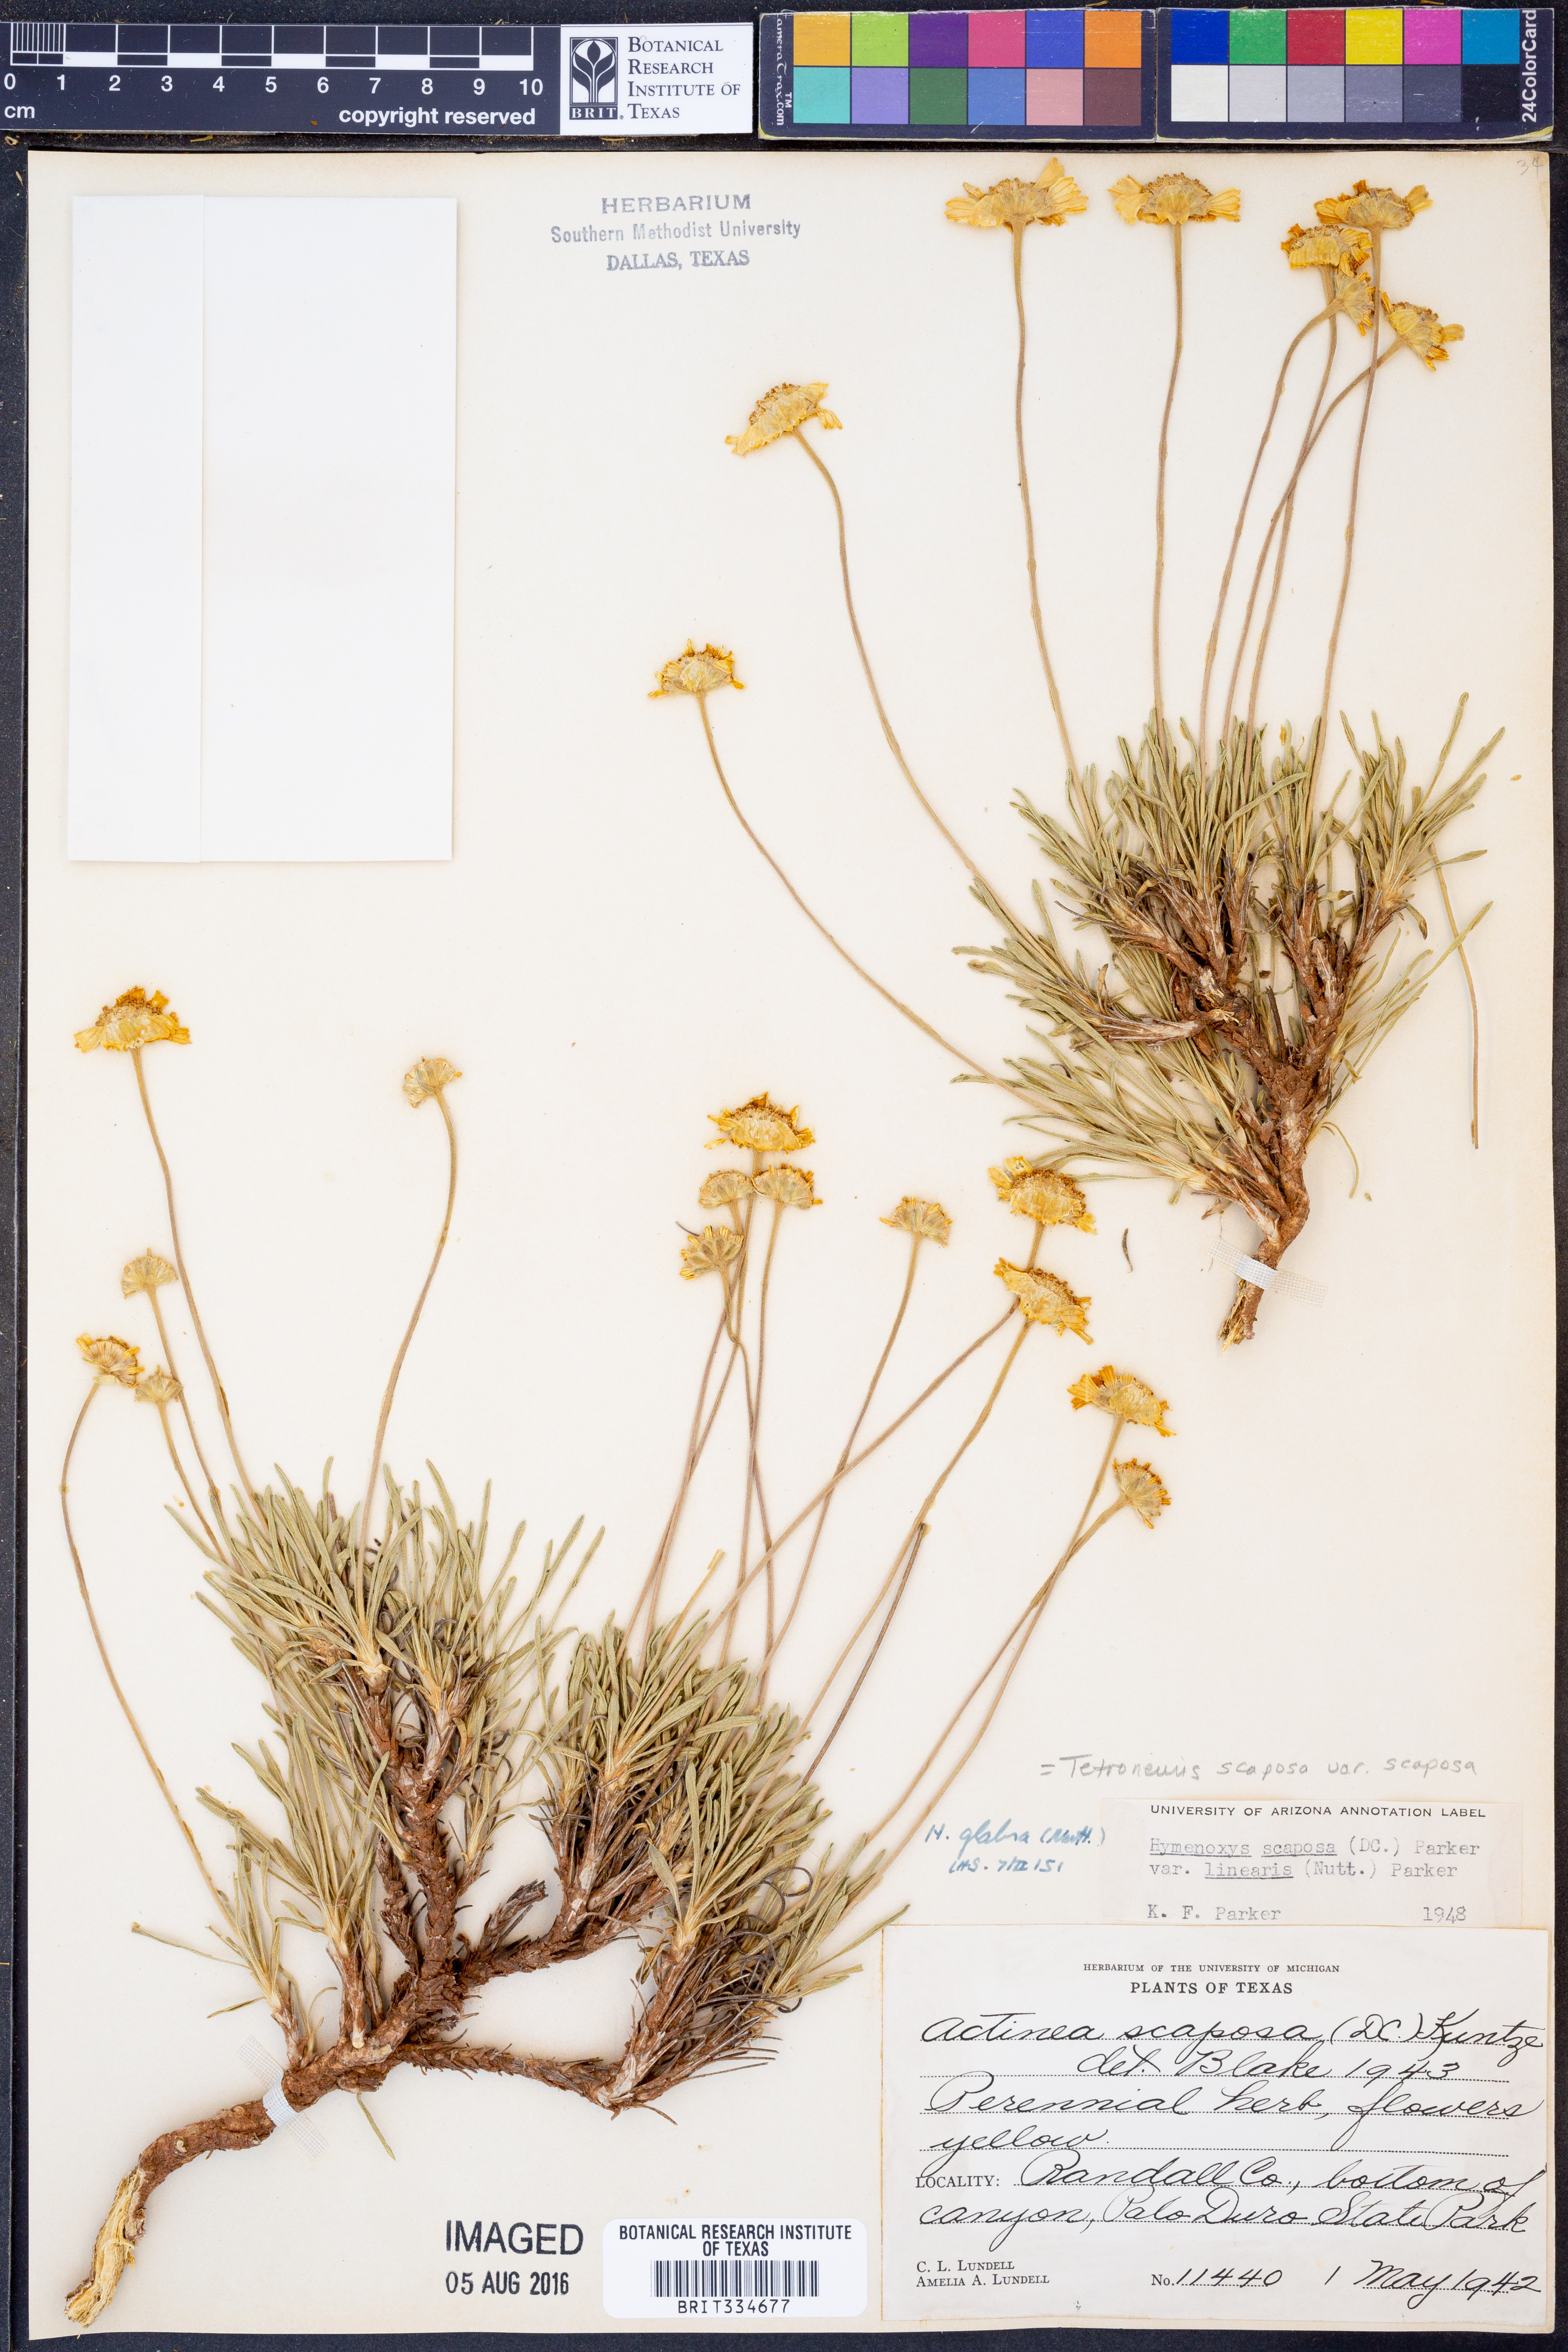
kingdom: Plantae
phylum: Tracheophyta
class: Magnoliopsida
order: Asterales
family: Asteraceae
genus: Tetraneuris
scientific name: Tetraneuris scaposa
